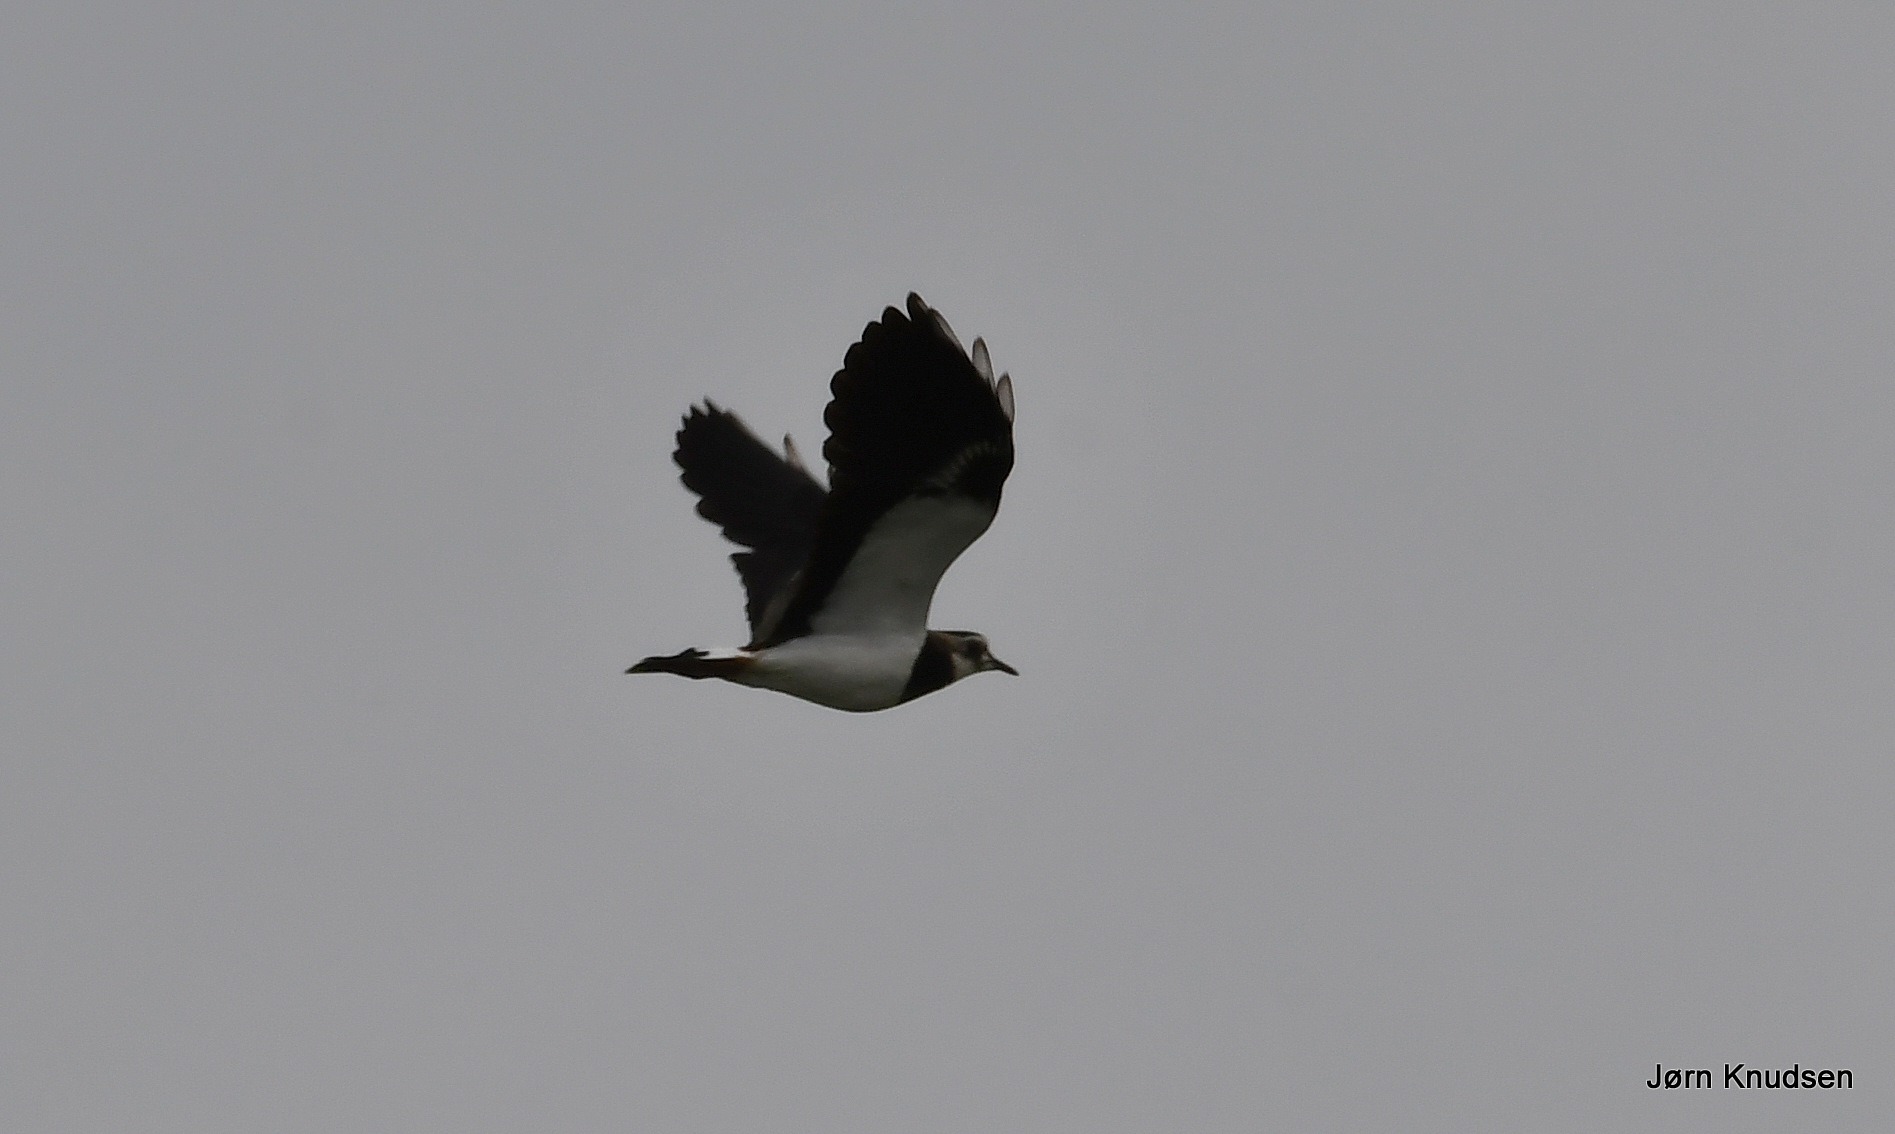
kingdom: Animalia
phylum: Chordata
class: Aves
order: Charadriiformes
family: Charadriidae
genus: Vanellus
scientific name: Vanellus vanellus
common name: Vibe
